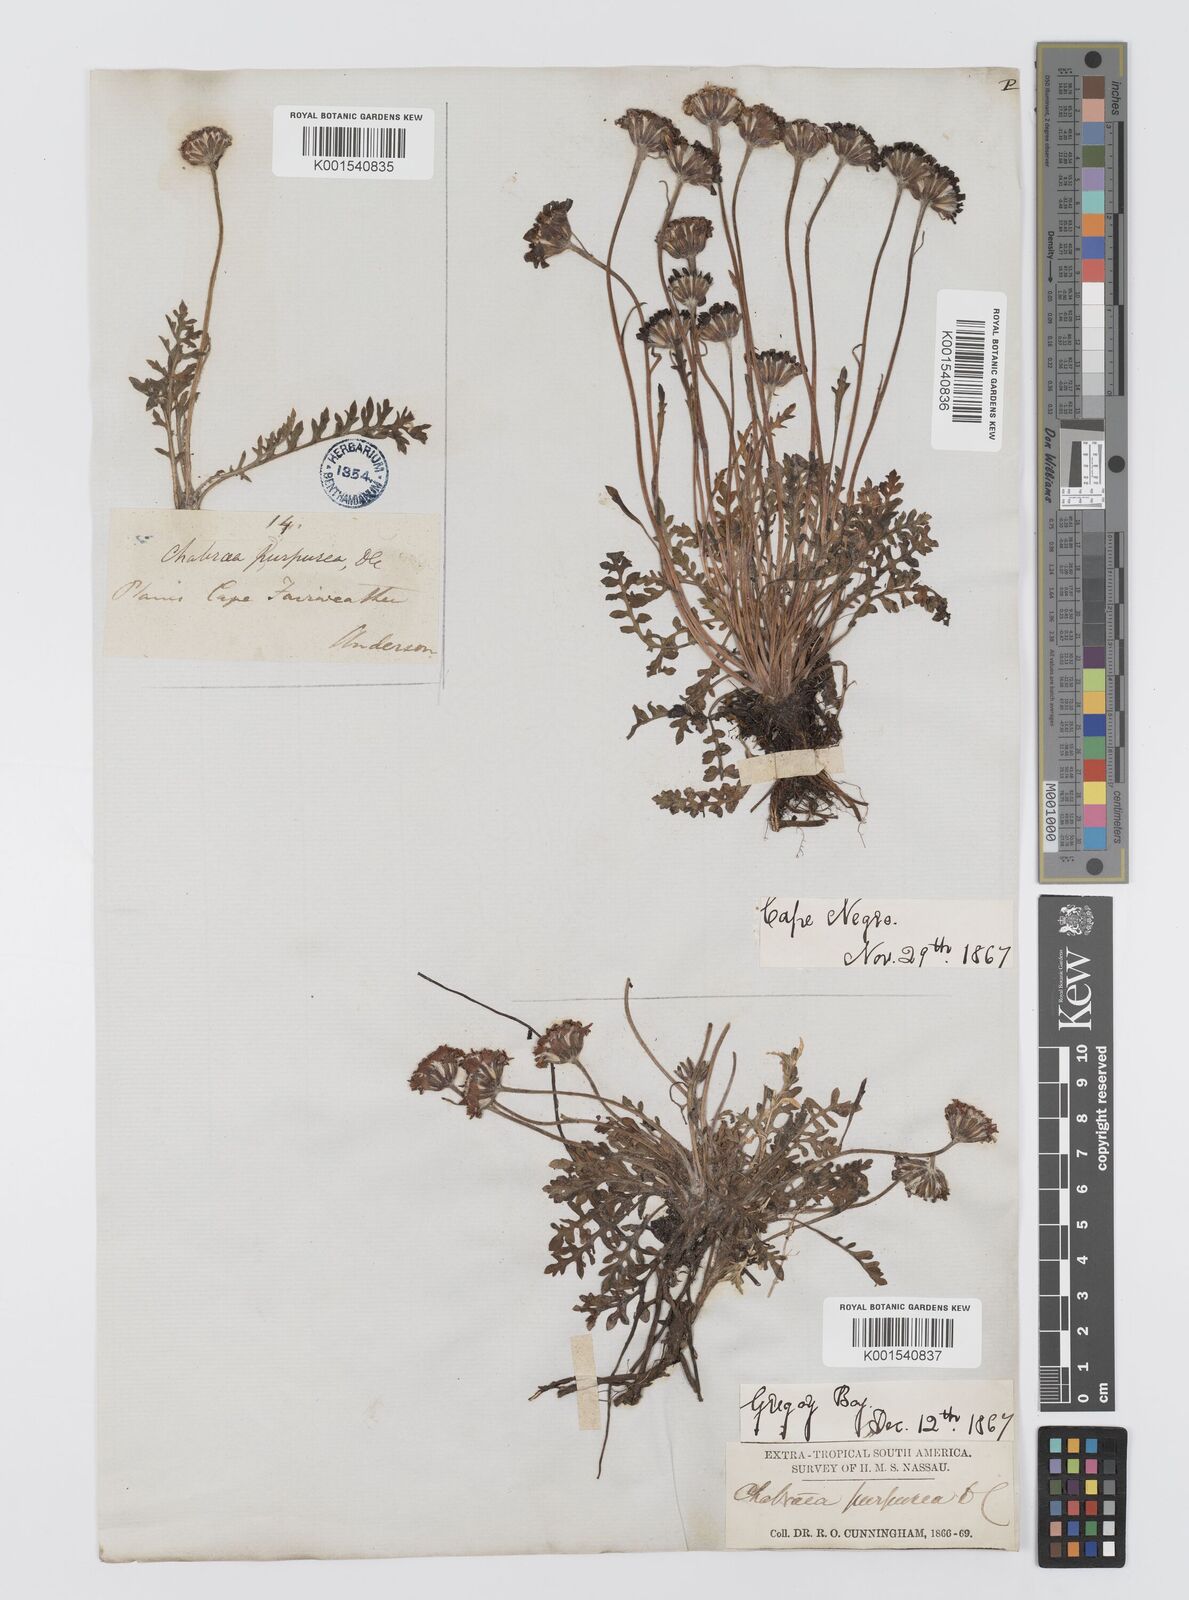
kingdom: Plantae
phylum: Tracheophyta
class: Magnoliopsida
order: Asterales
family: Asteraceae
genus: Leucheria
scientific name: Leucheria purpurea
